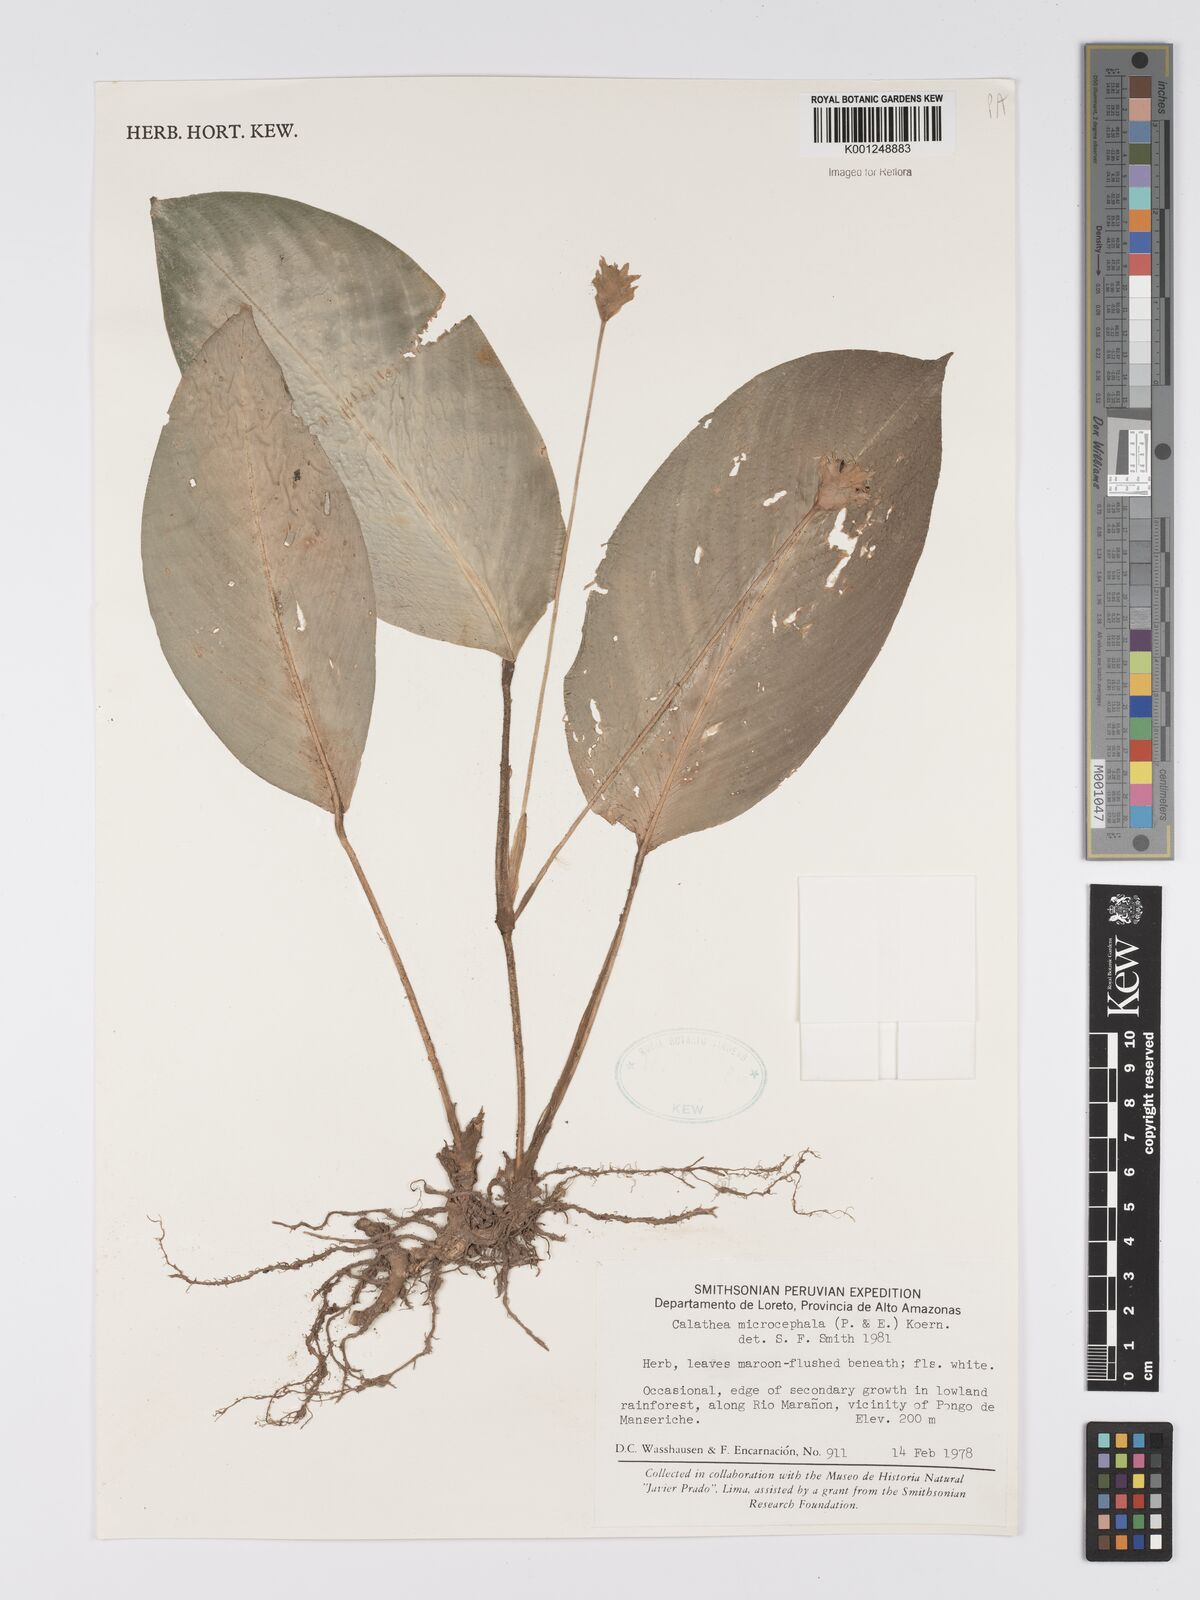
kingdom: Plantae
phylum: Tracheophyta
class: Liliopsida
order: Zingiberales
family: Marantaceae
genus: Goeppertia
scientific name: Goeppertia microcephala
